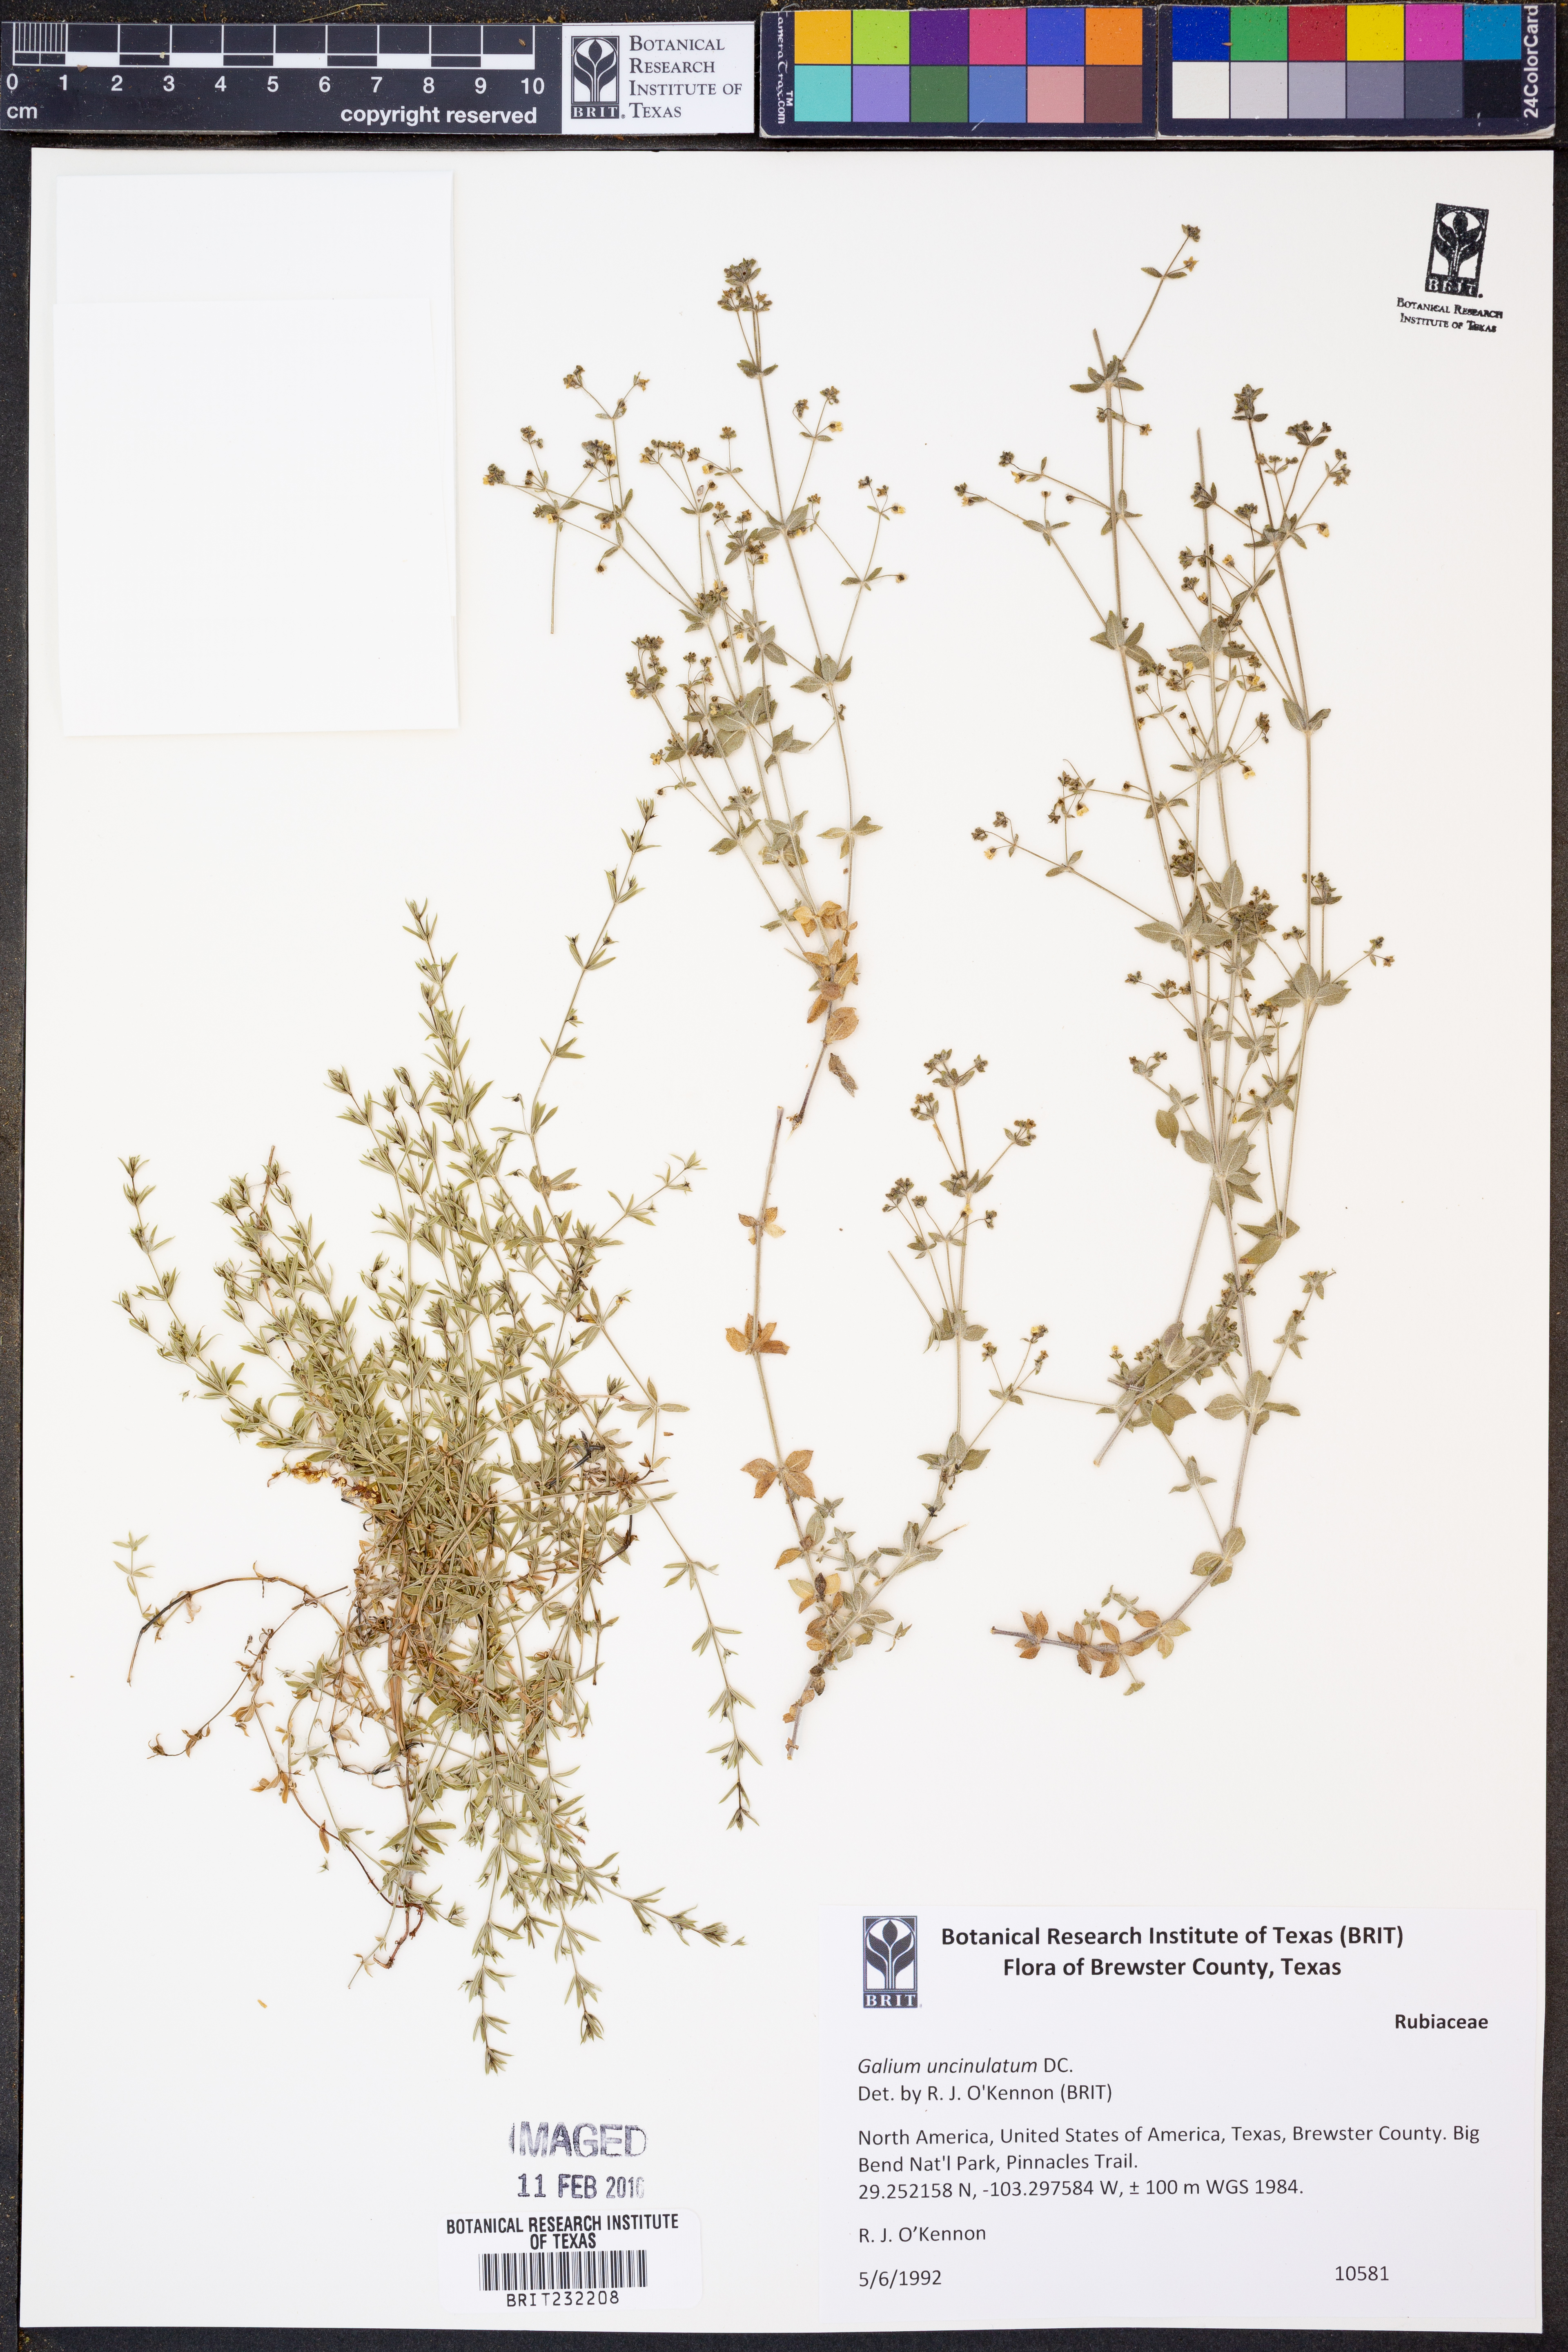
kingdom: Plantae
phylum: Tracheophyta
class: Magnoliopsida
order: Gentianales
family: Rubiaceae
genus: Galium
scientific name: Galium uncinulatum
